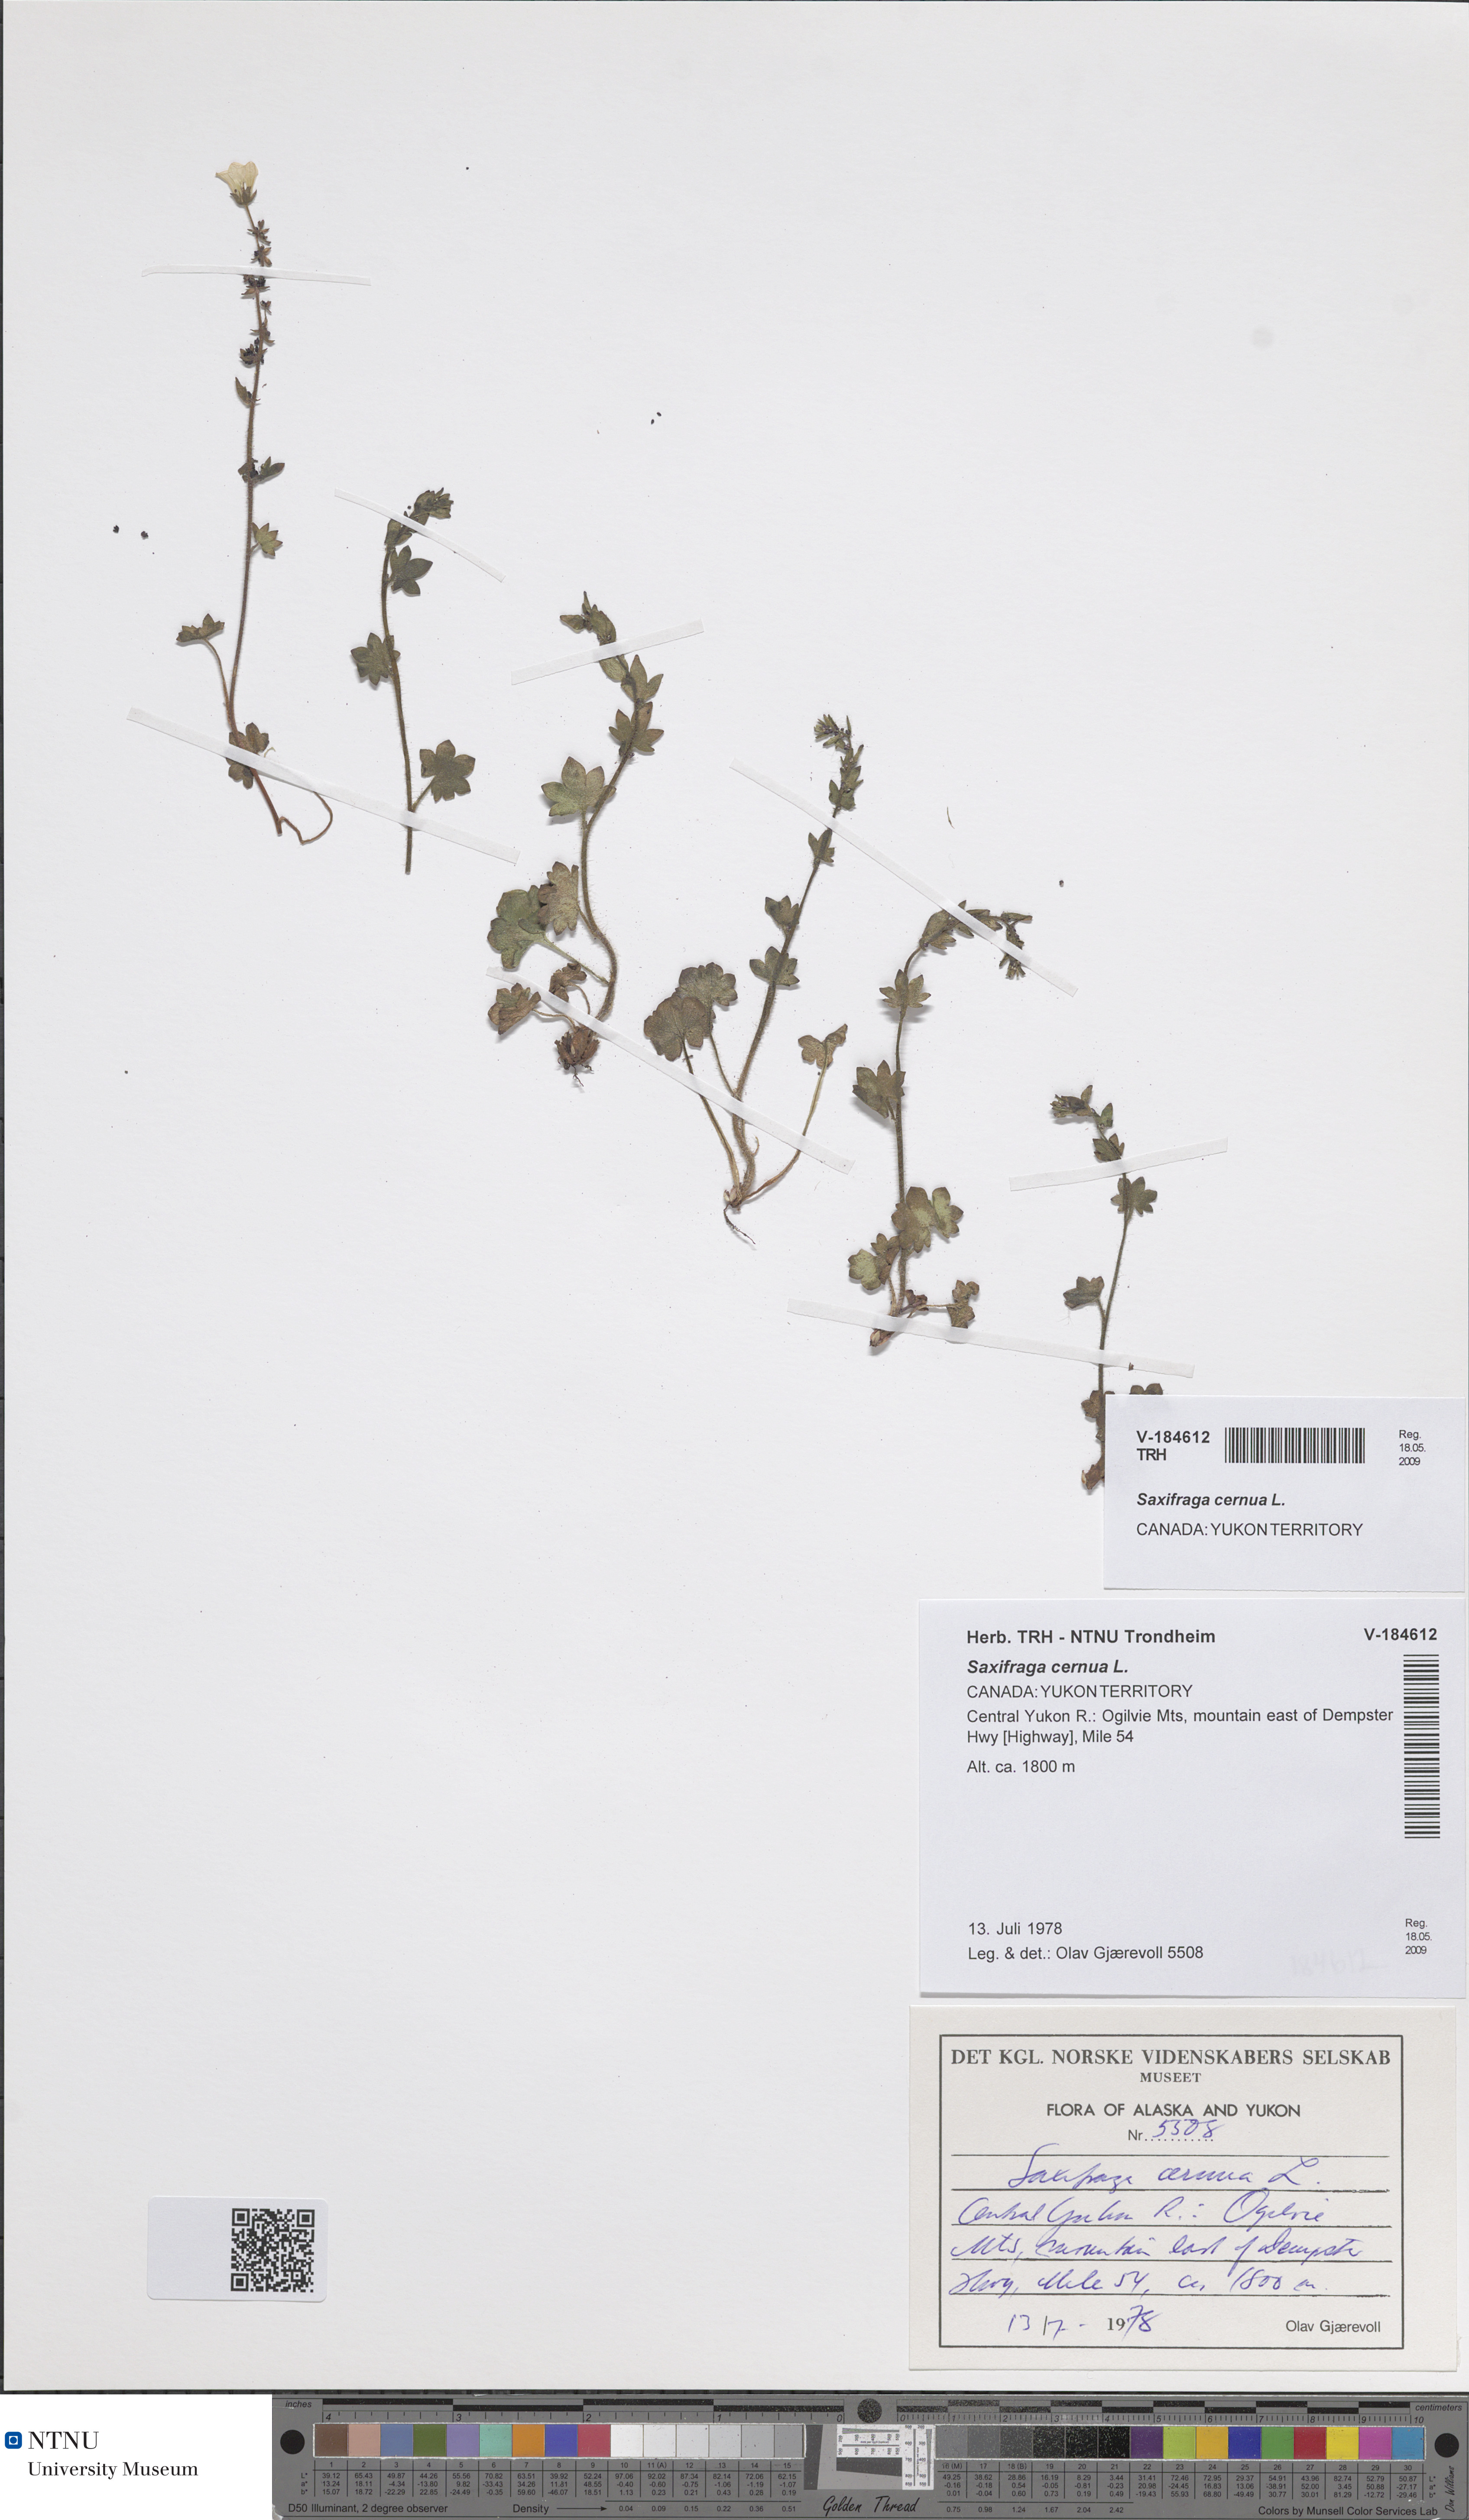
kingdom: Plantae
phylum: Tracheophyta
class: Magnoliopsida
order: Saxifragales
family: Saxifragaceae
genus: Saxifraga
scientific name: Saxifraga cernua
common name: Drooping saxifrage
